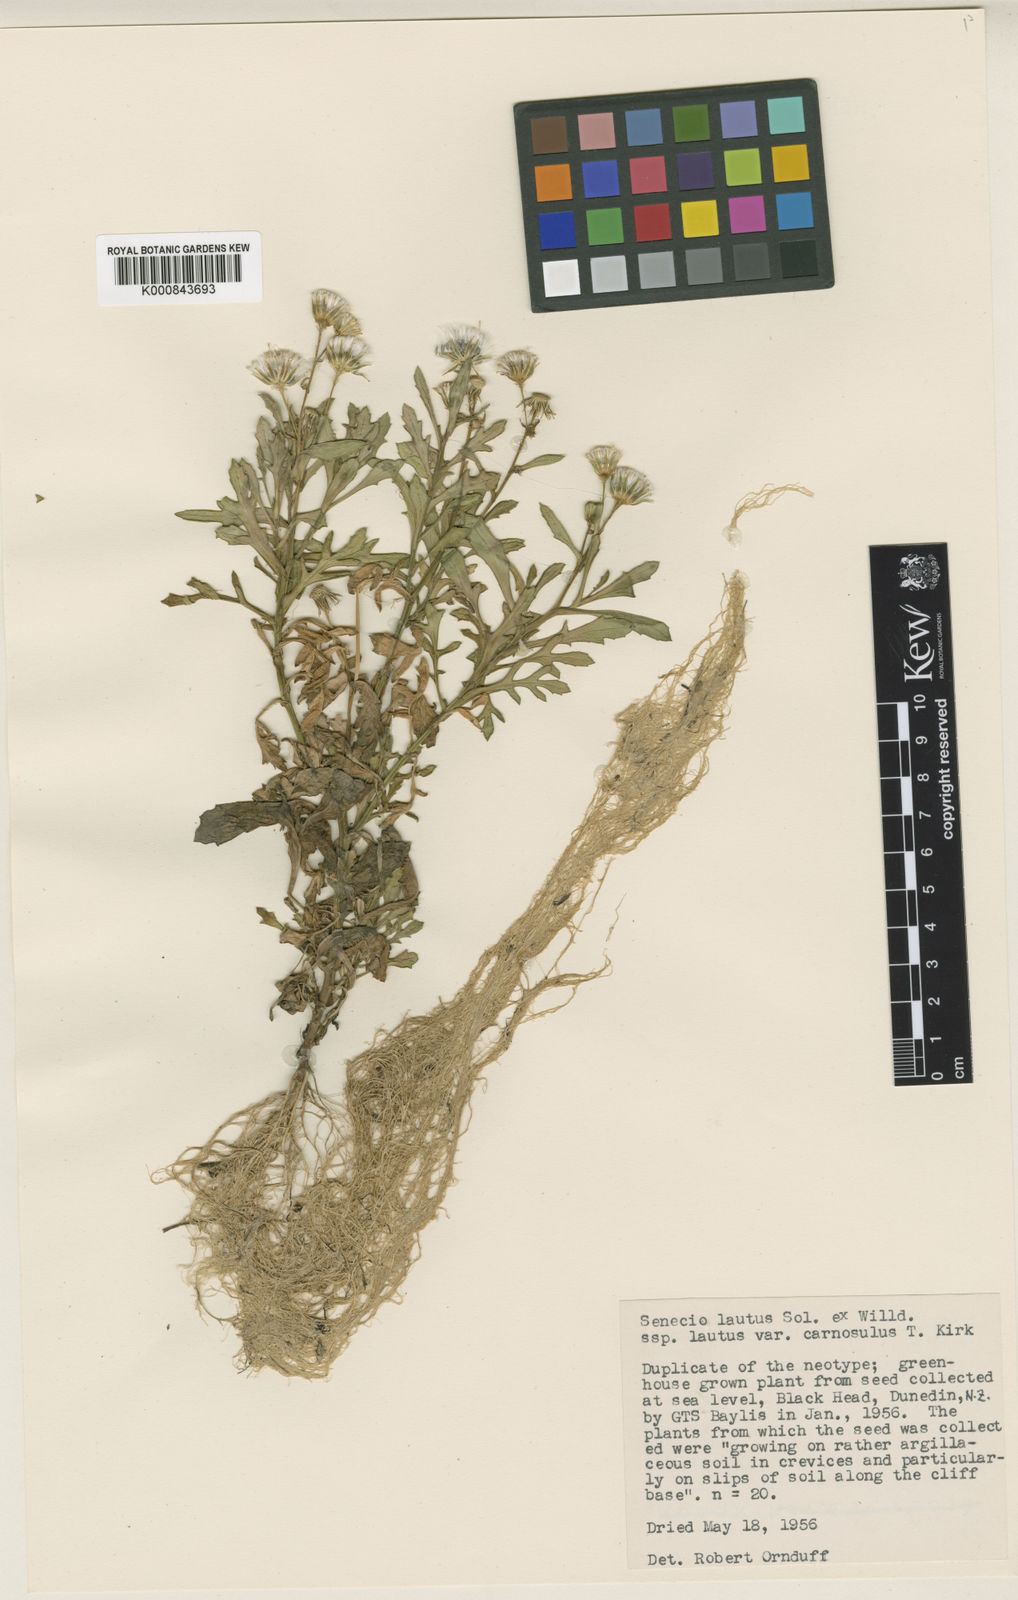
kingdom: Plantae
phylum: Tracheophyta
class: Magnoliopsida
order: Asterales
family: Asteraceae
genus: Senecio
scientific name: Senecio
